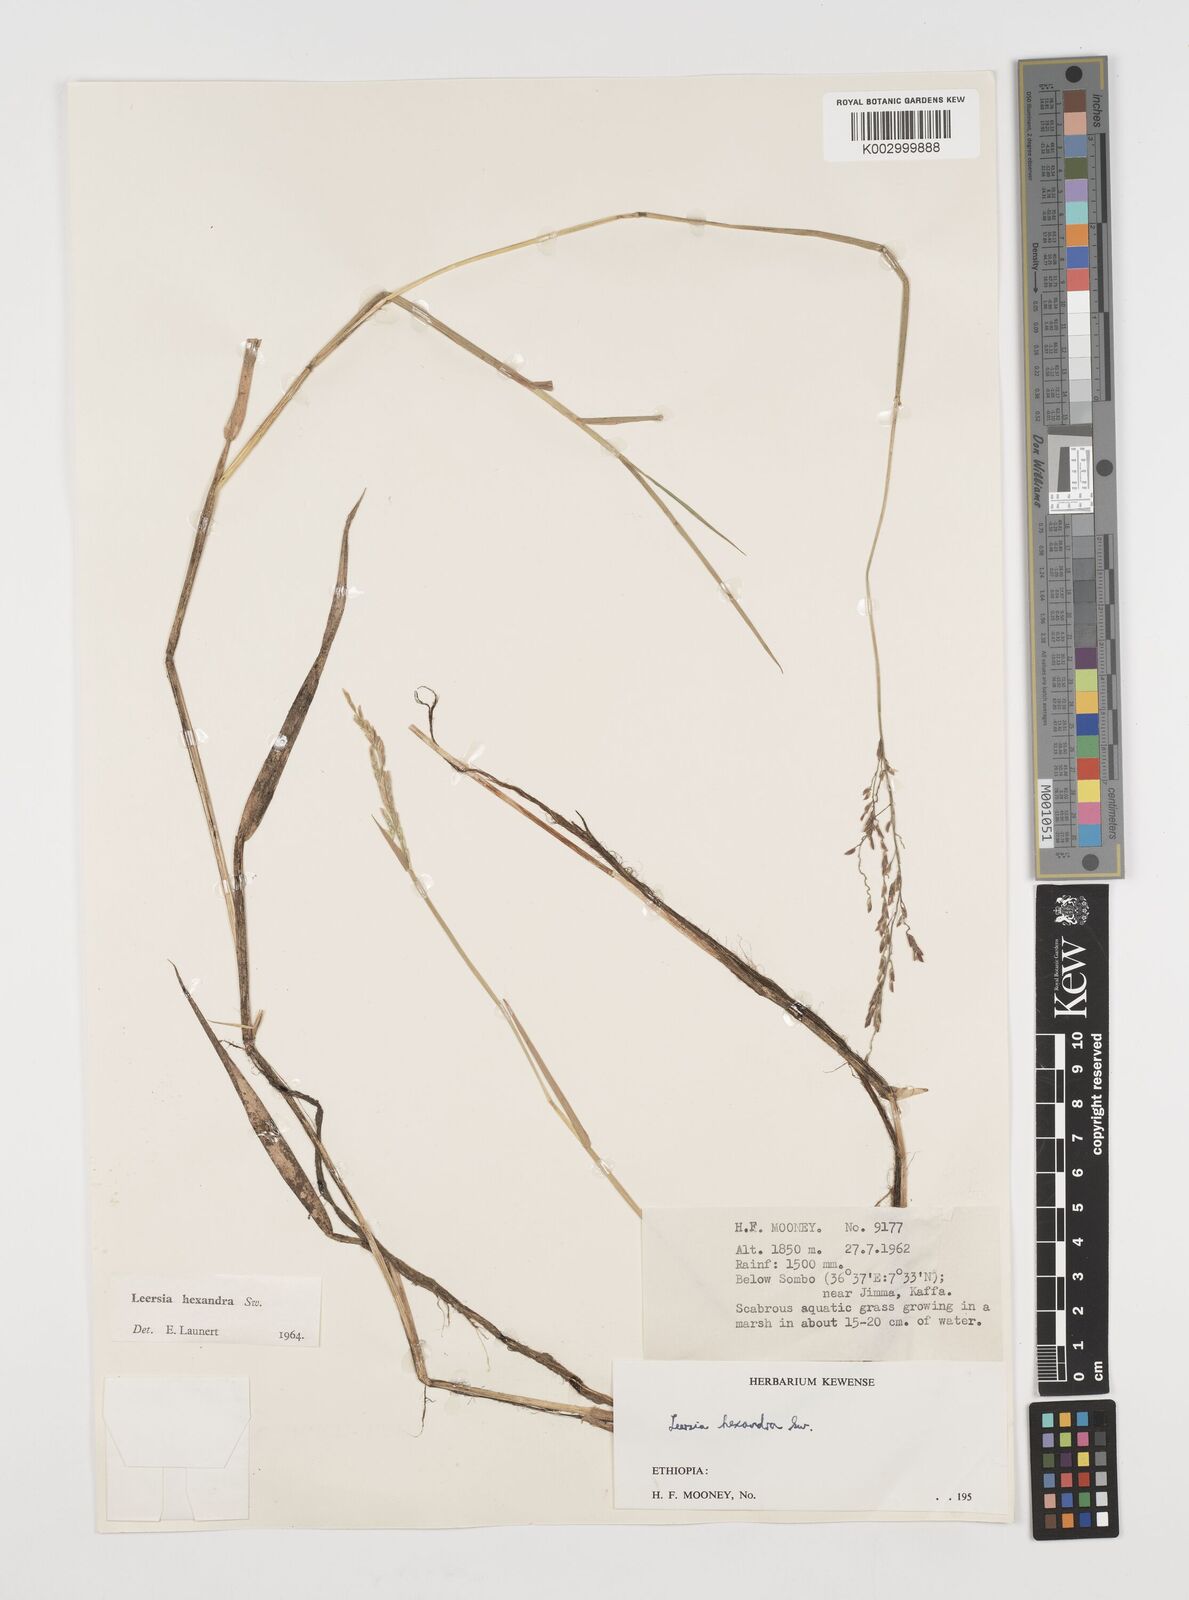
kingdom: Plantae
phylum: Tracheophyta
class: Liliopsida
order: Poales
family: Poaceae
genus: Leersia
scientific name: Leersia hexandra
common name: Southern cut grass
